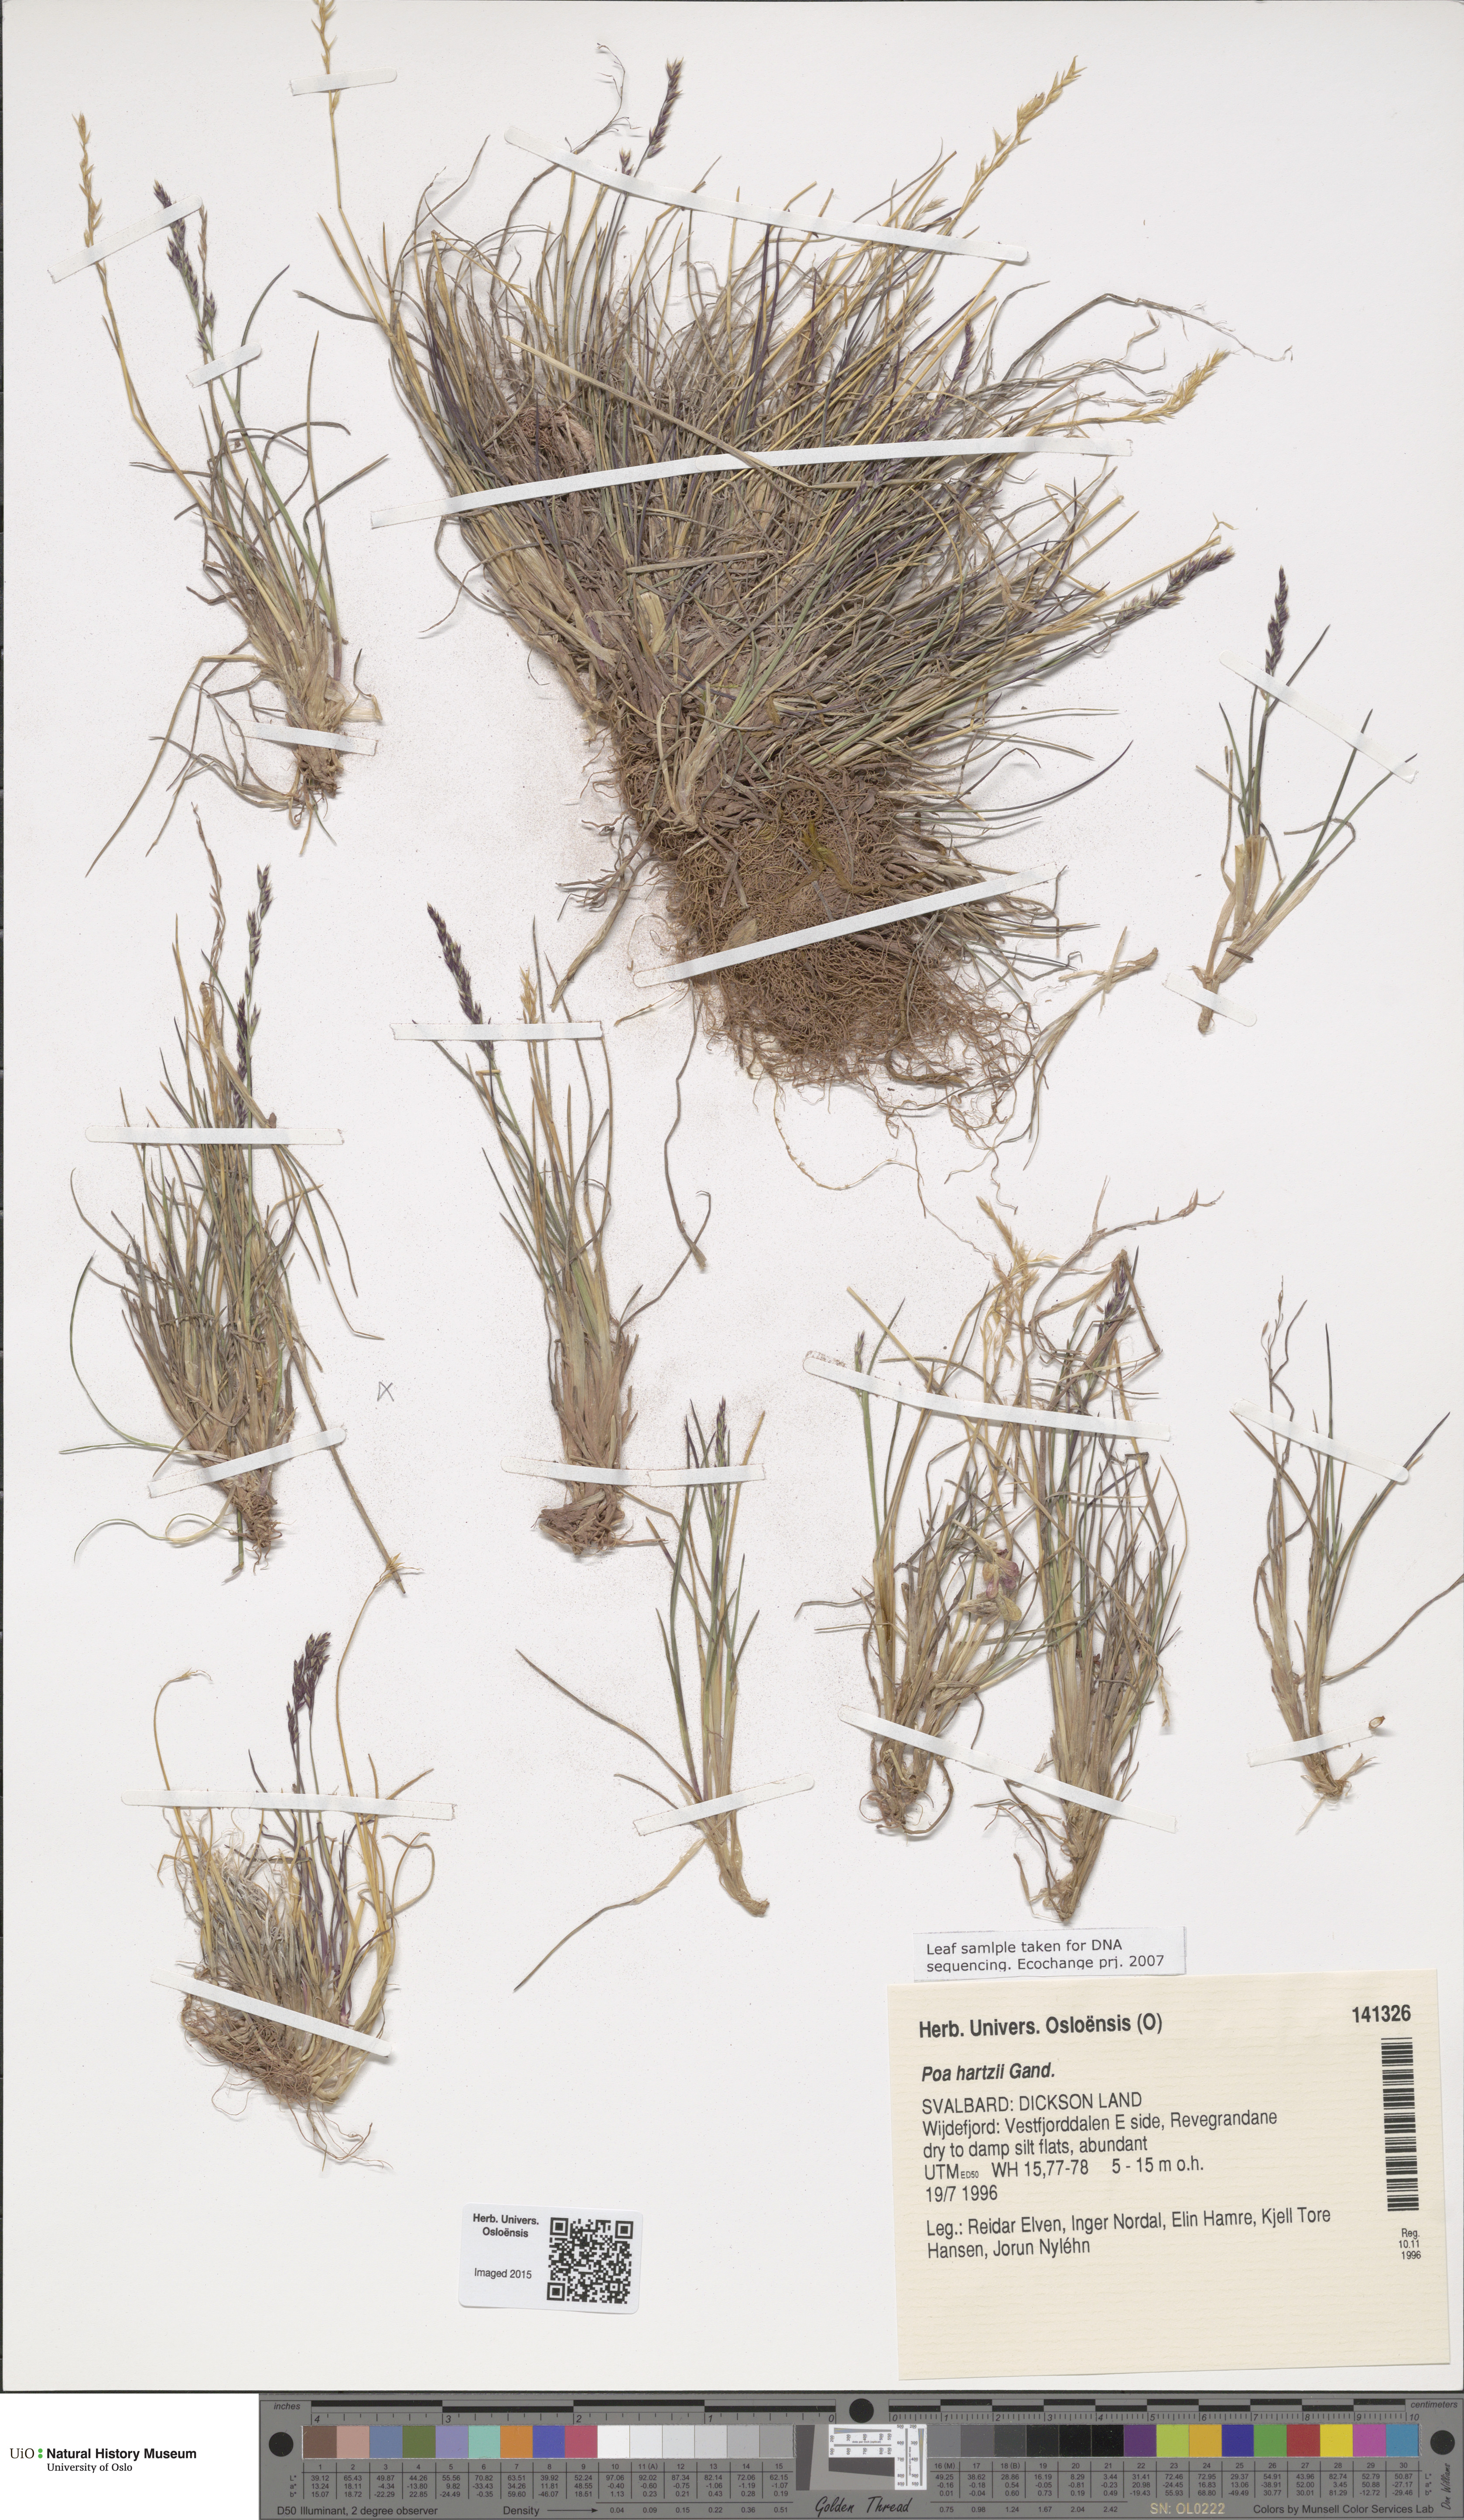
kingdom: Plantae
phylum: Tracheophyta
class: Liliopsida
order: Poales
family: Poaceae
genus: Poa
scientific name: Poa hartzii
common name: Hartz's bluegrass
